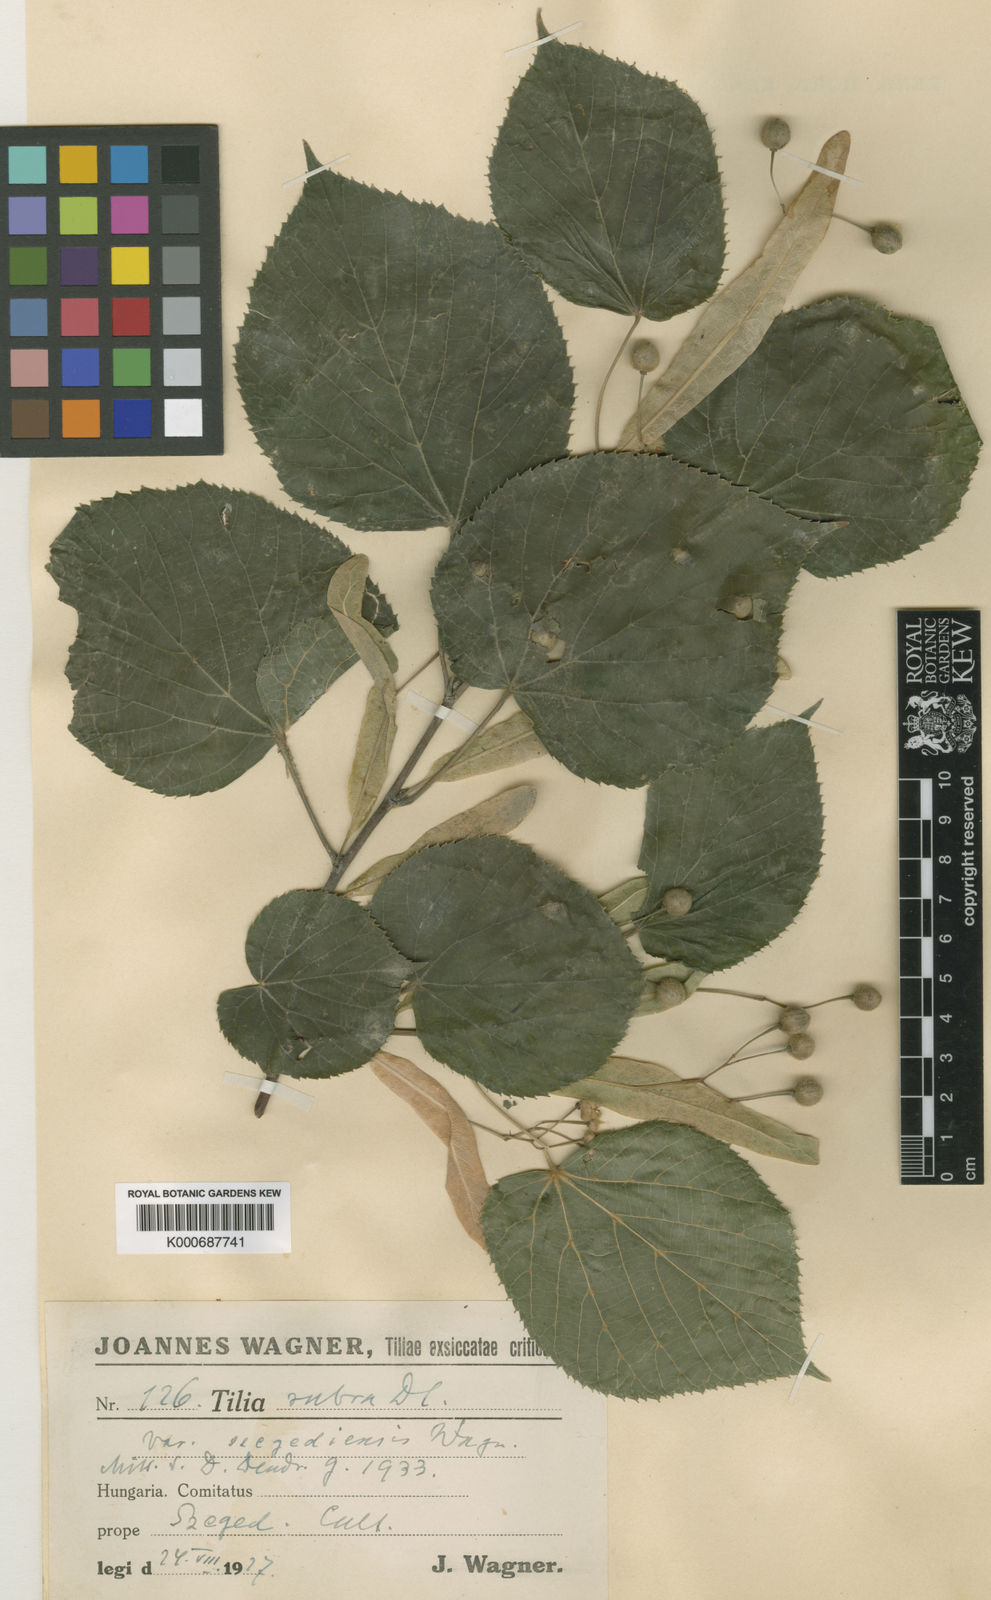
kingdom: Plantae
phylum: Tracheophyta
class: Magnoliopsida
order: Malvales
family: Malvaceae
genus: Tilia
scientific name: Tilia platyphyllos
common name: Large-leaved lime
